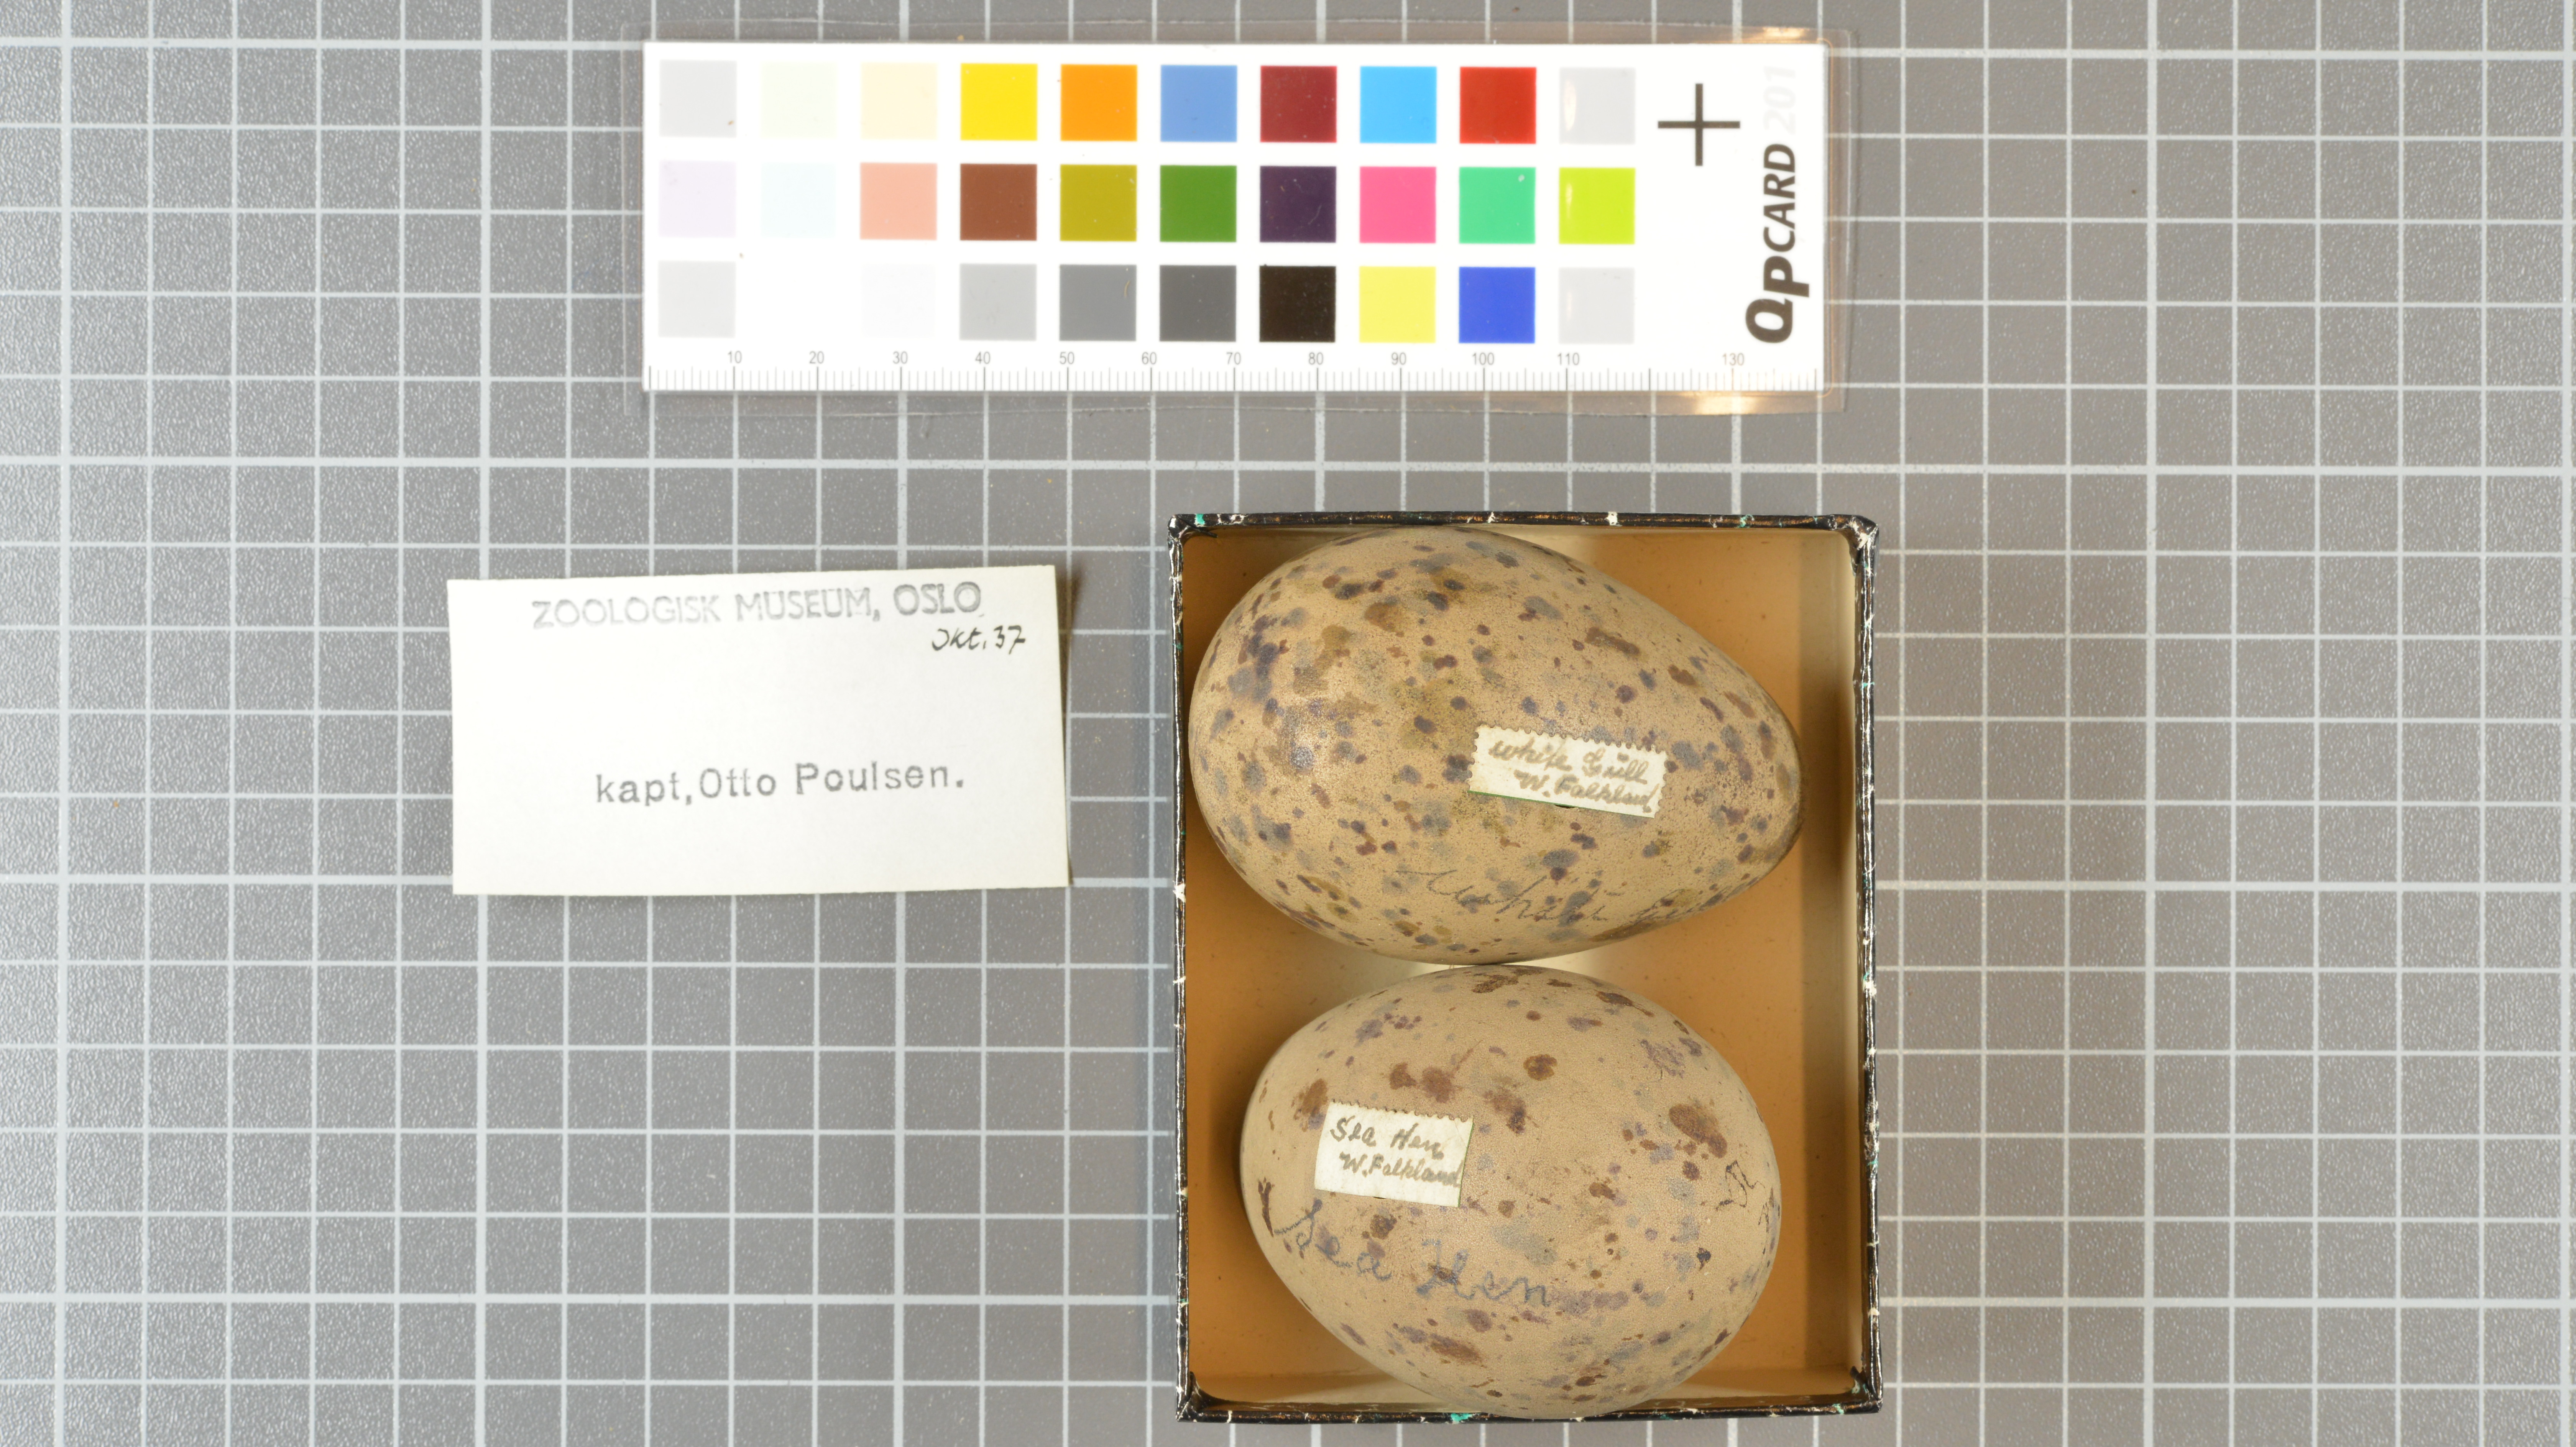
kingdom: Animalia
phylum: Chordata
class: Aves
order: Charadriiformes
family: Stercorariidae
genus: Stercorarius
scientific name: Stercorarius antarcticus
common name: Brown skua
